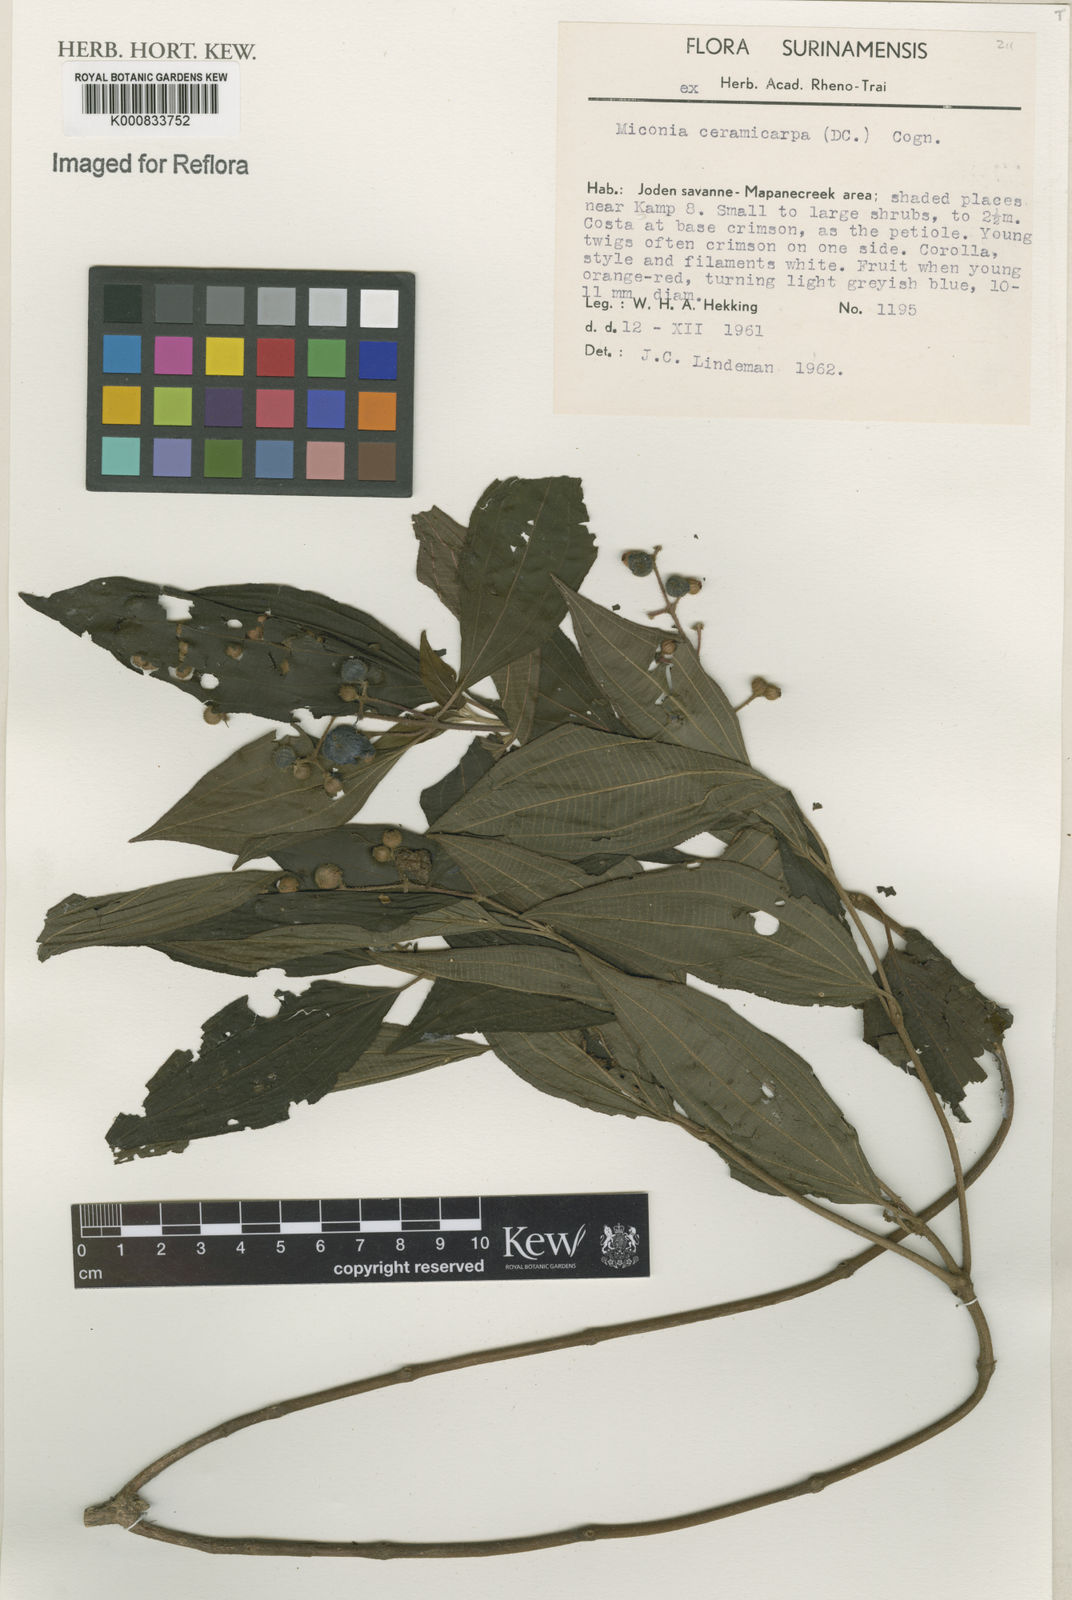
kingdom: Plantae
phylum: Tracheophyta
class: Magnoliopsida
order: Myrtales
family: Melastomataceae
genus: Miconia
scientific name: Miconia ceramicarpa
